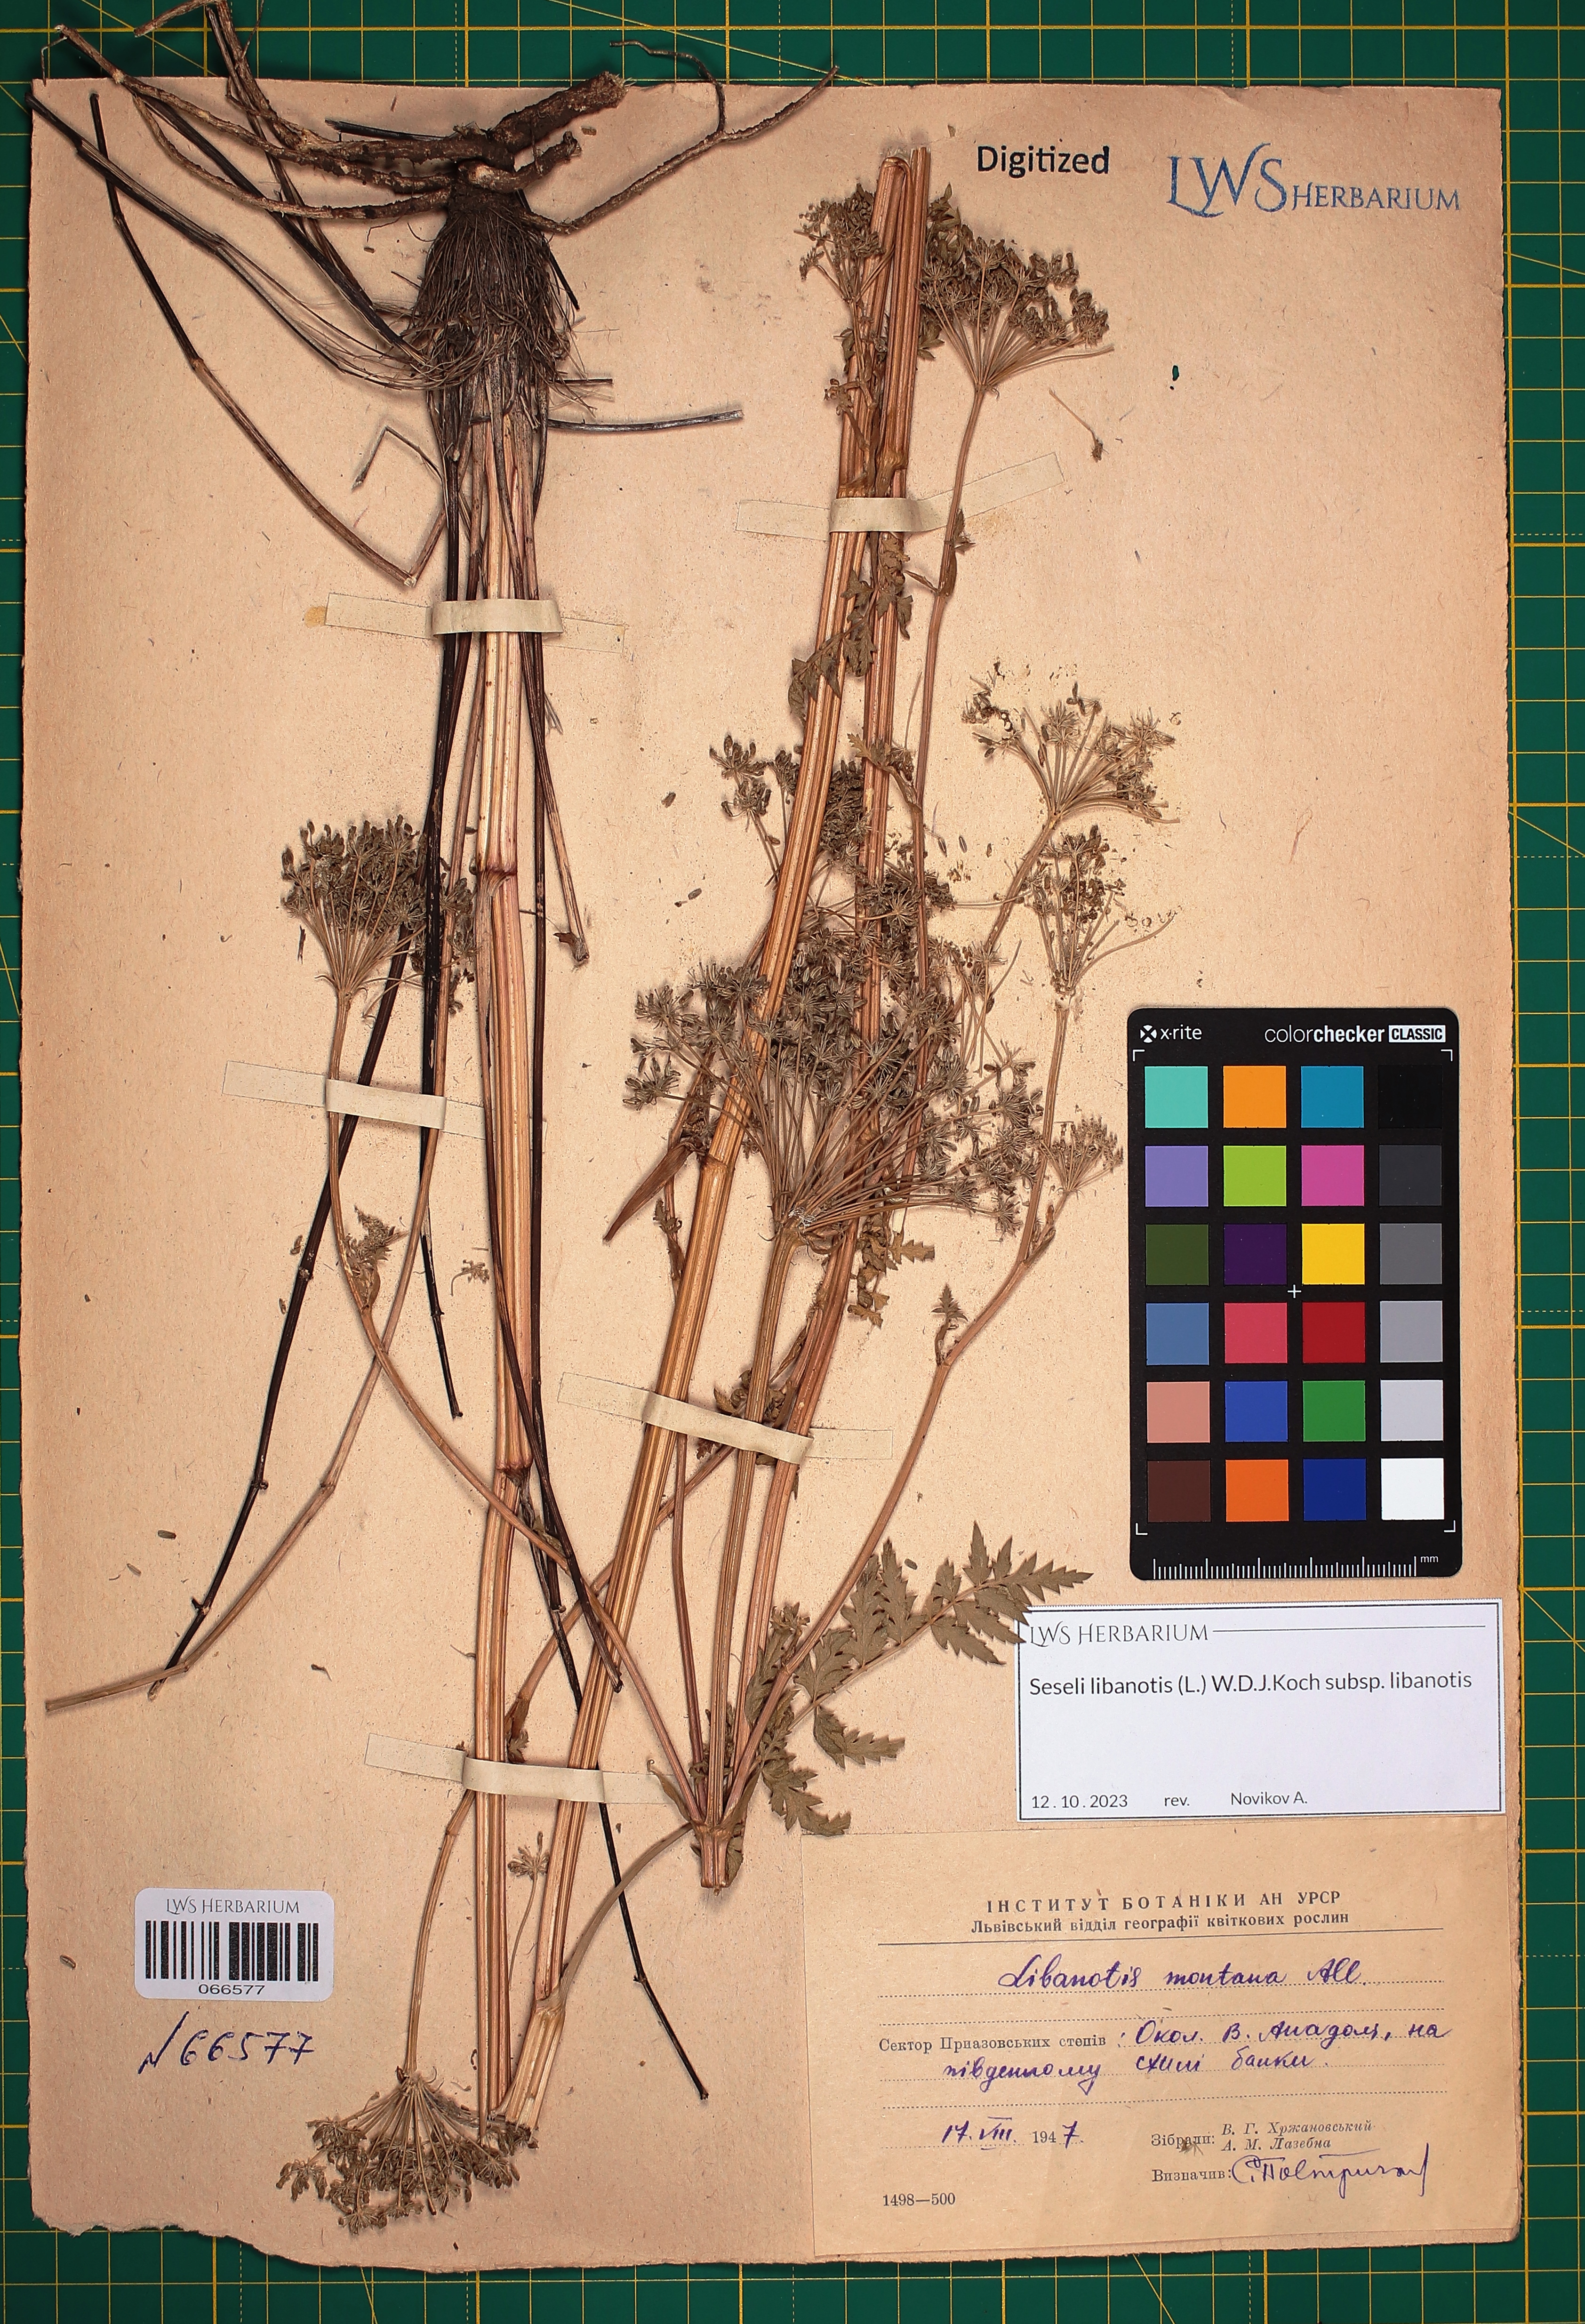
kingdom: Plantae
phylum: Tracheophyta
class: Magnoliopsida
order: Apiales
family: Apiaceae
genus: Seseli
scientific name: Seseli libanotis
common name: Mooncarrot
